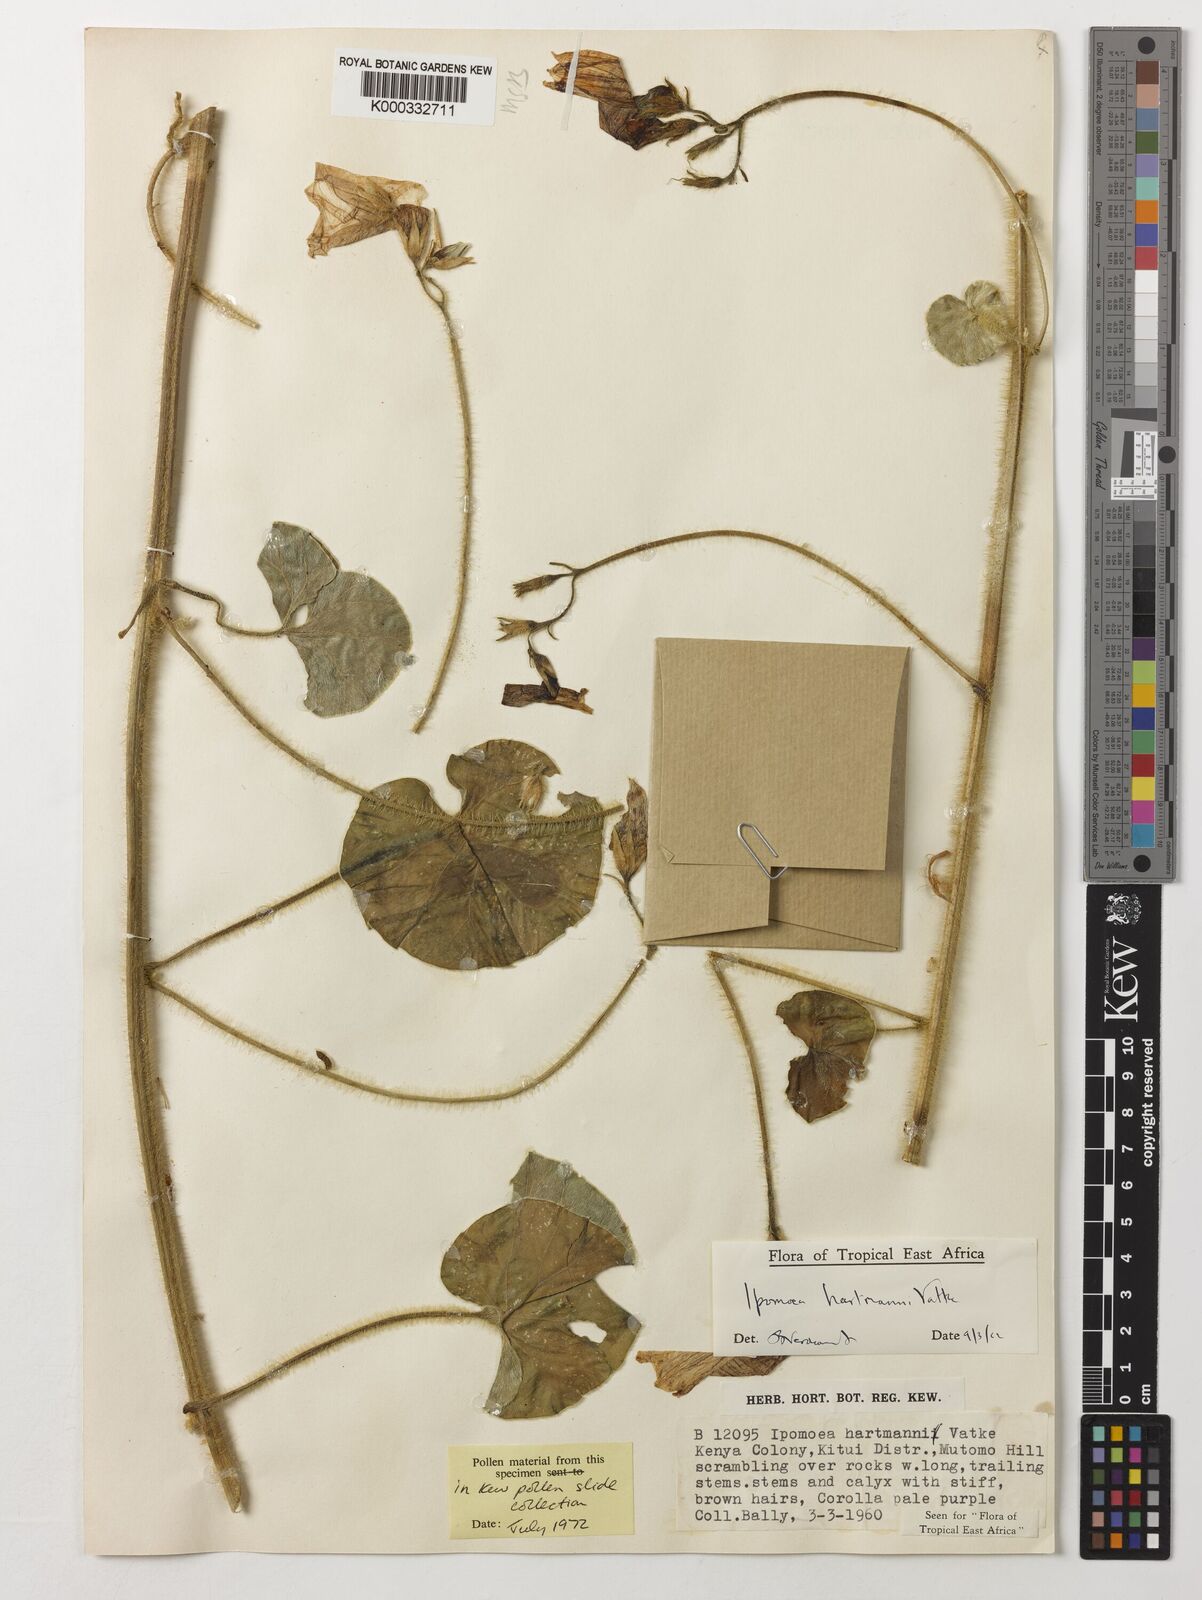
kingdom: Plantae
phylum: Tracheophyta
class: Magnoliopsida
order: Solanales
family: Convolvulaceae
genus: Ipomoea
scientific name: Ipomoea hartmannii
